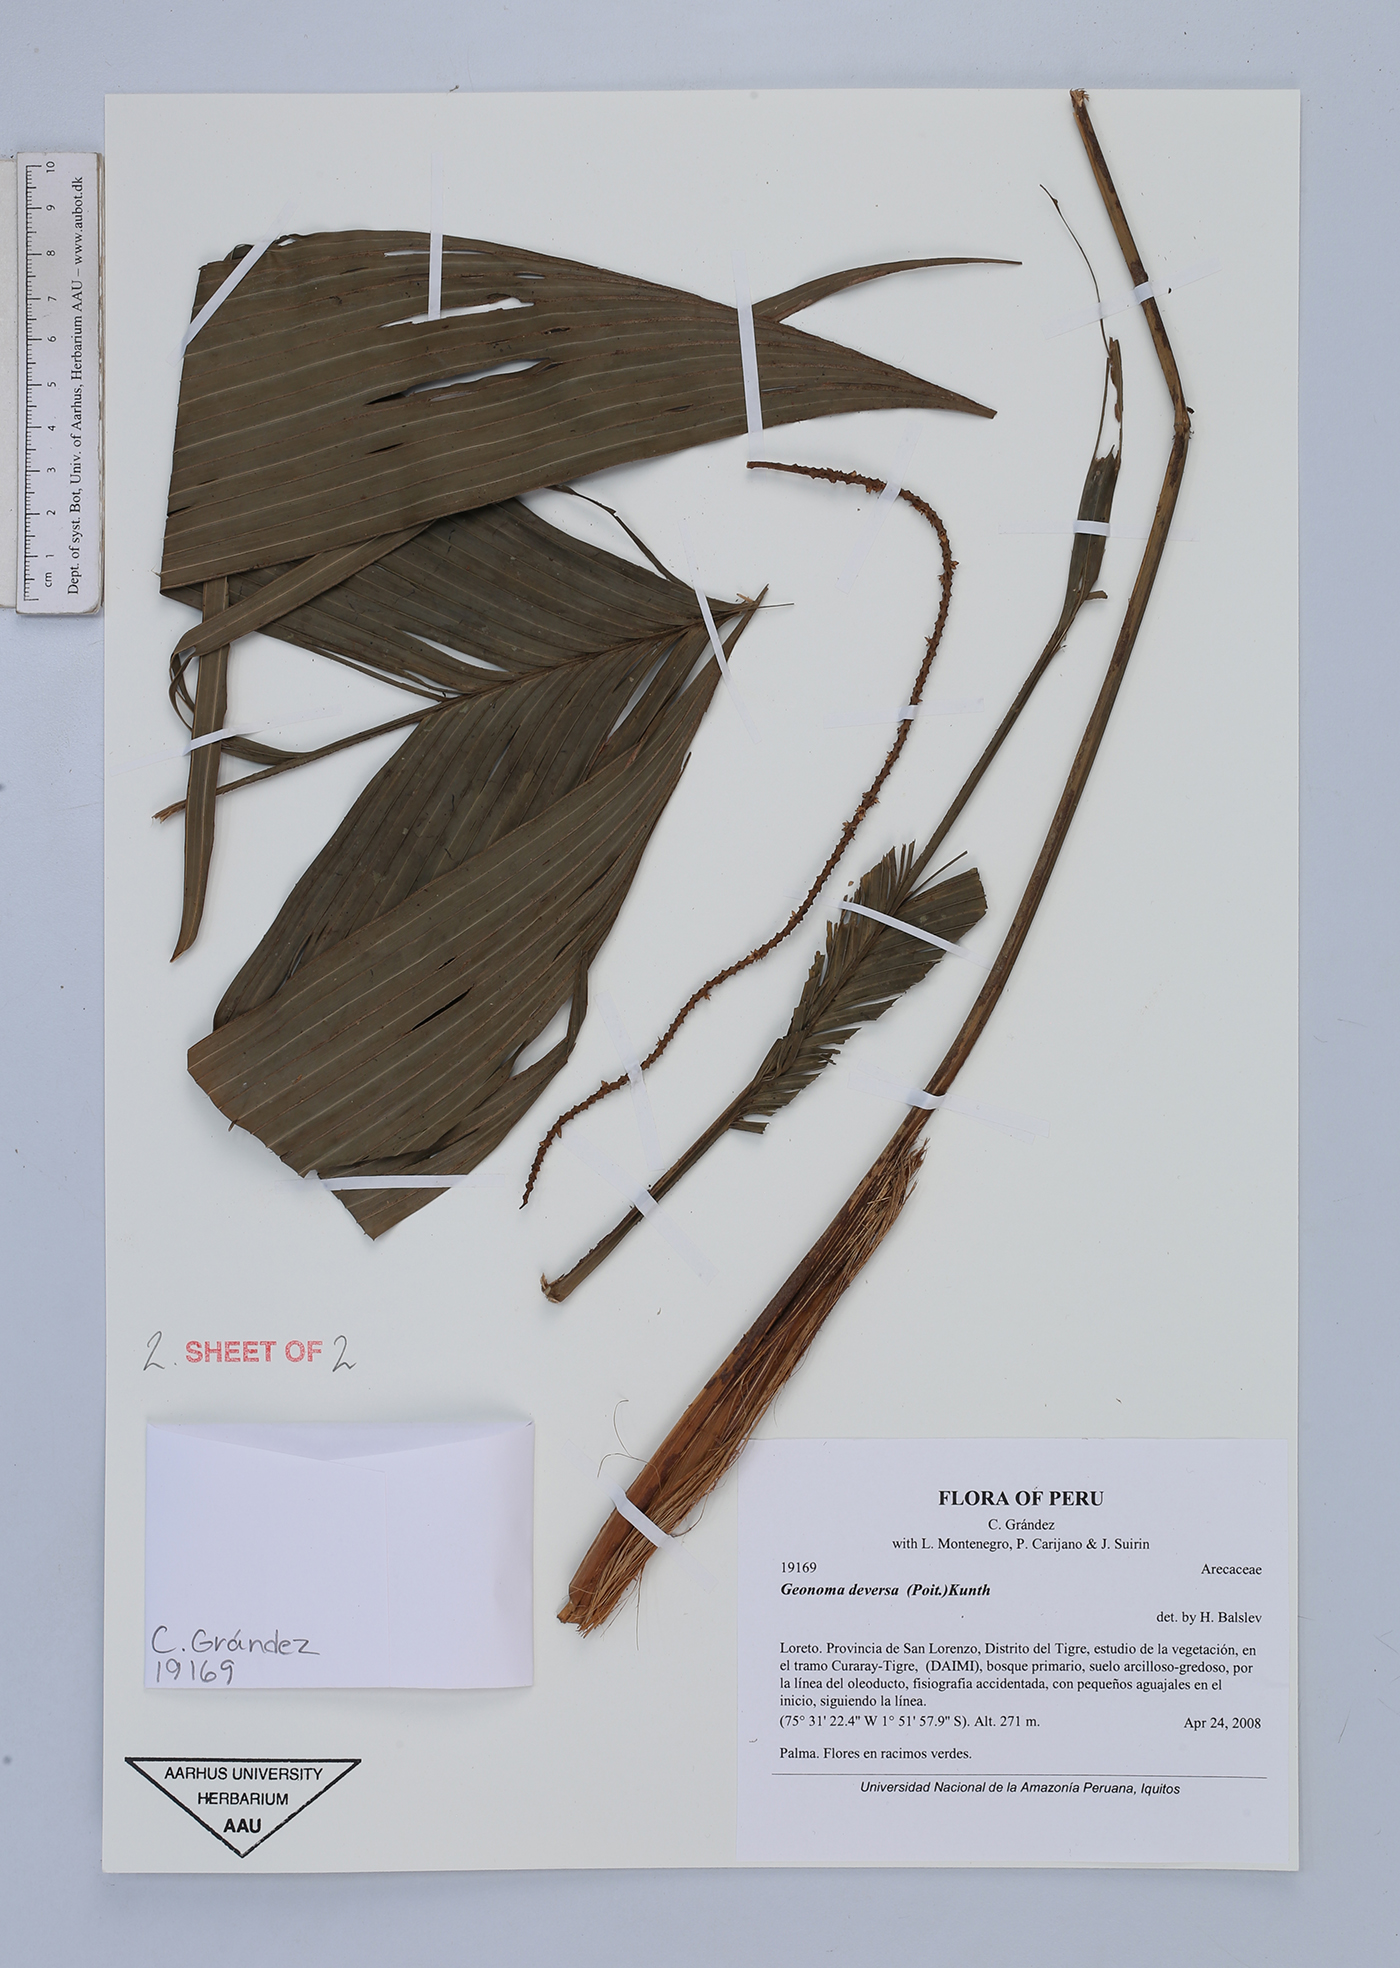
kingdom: Plantae
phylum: Tracheophyta
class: Liliopsida
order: Arecales
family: Arecaceae
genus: Geonoma
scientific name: Geonoma deversa
